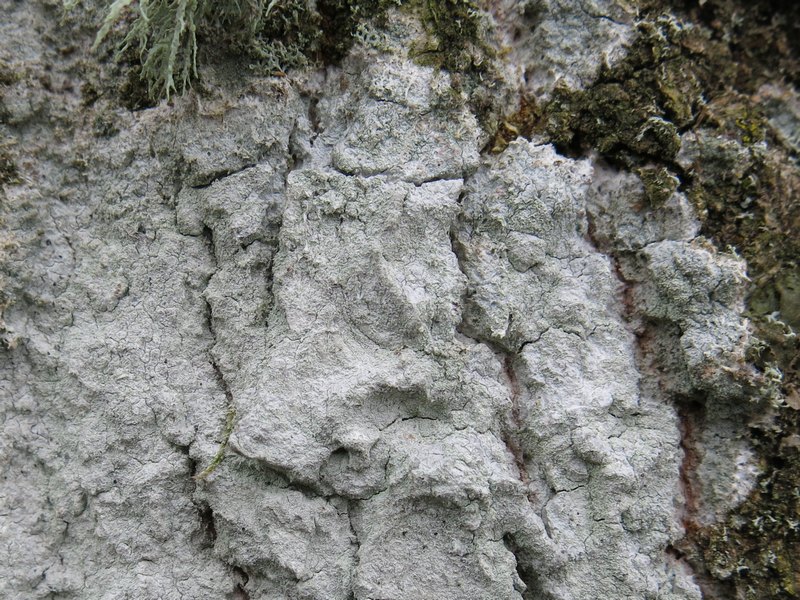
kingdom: Fungi
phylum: Ascomycota
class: Lecanoromycetes
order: Ostropales
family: Phlyctidaceae
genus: Phlyctis
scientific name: Phlyctis argena
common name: almindelig sølvlav
